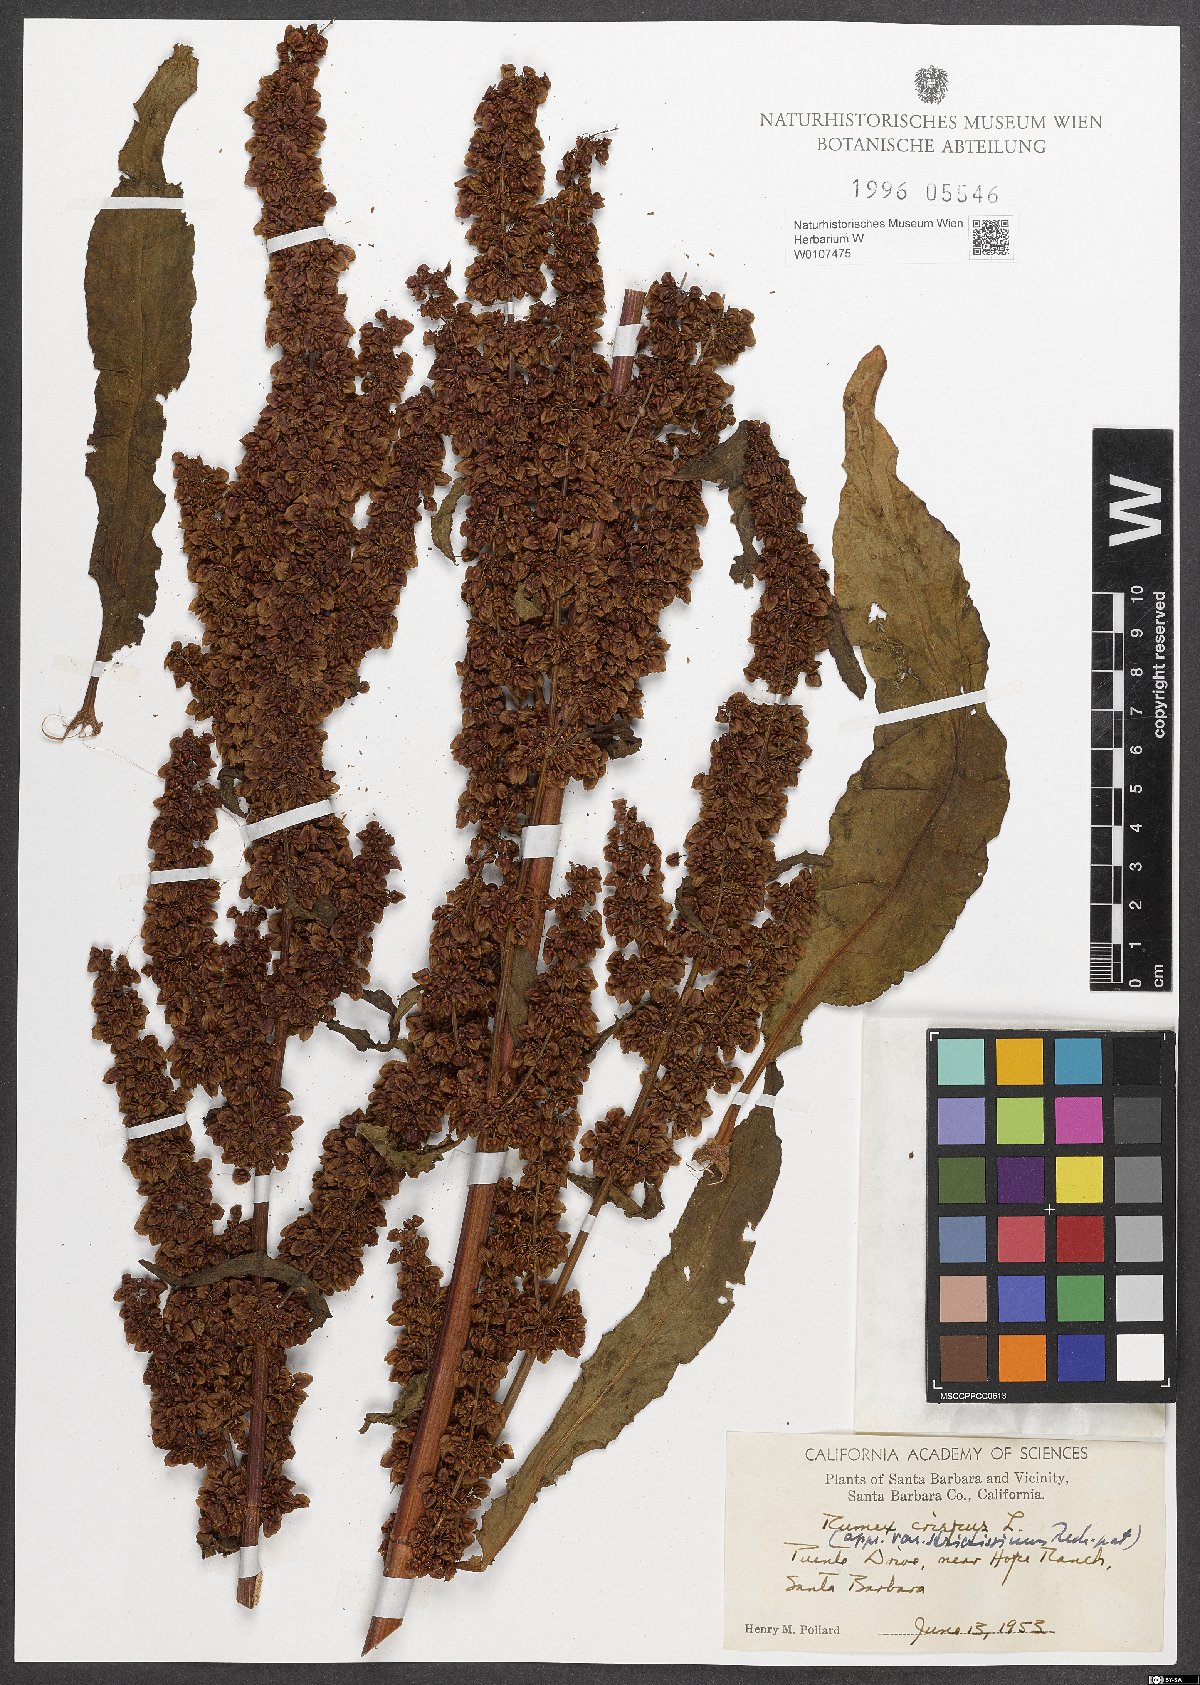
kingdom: Plantae
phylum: Tracheophyta
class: Magnoliopsida
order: Caryophyllales
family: Polygonaceae
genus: Rumex
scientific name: Rumex crispus
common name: Curled dock
